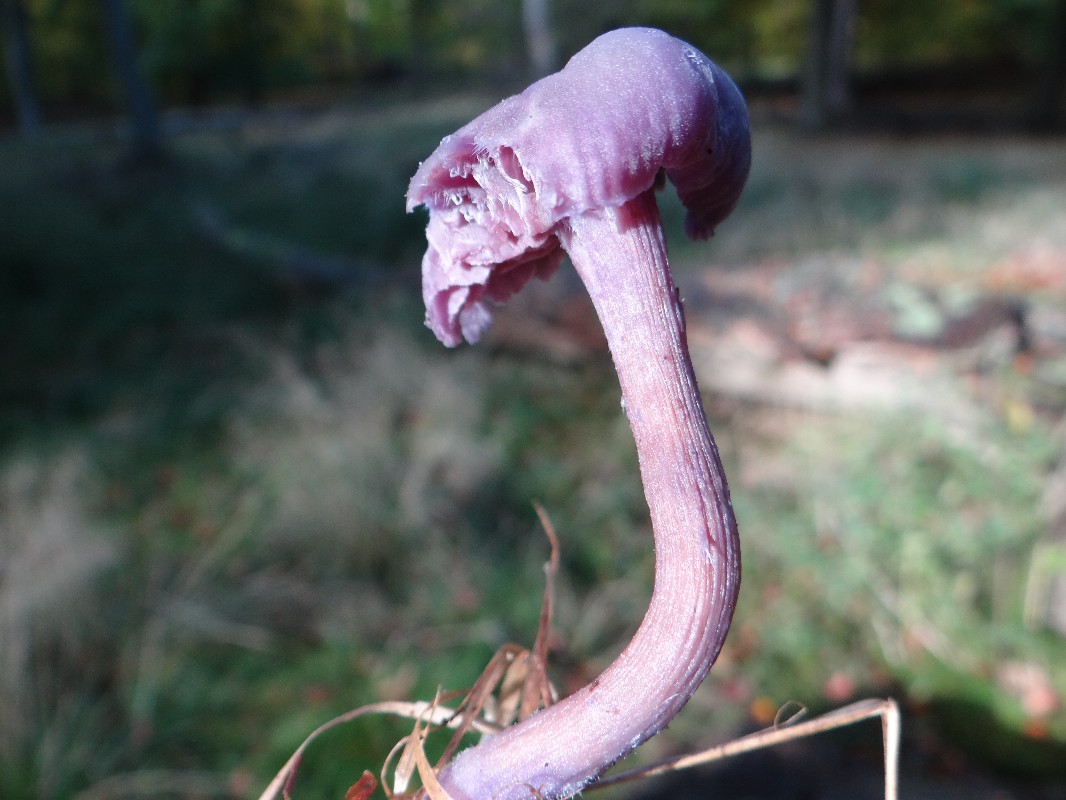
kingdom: Fungi
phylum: Basidiomycota
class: Agaricomycetes
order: Agaricales
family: Hydnangiaceae
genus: Laccaria
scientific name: Laccaria amethystina
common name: violet ametysthat
